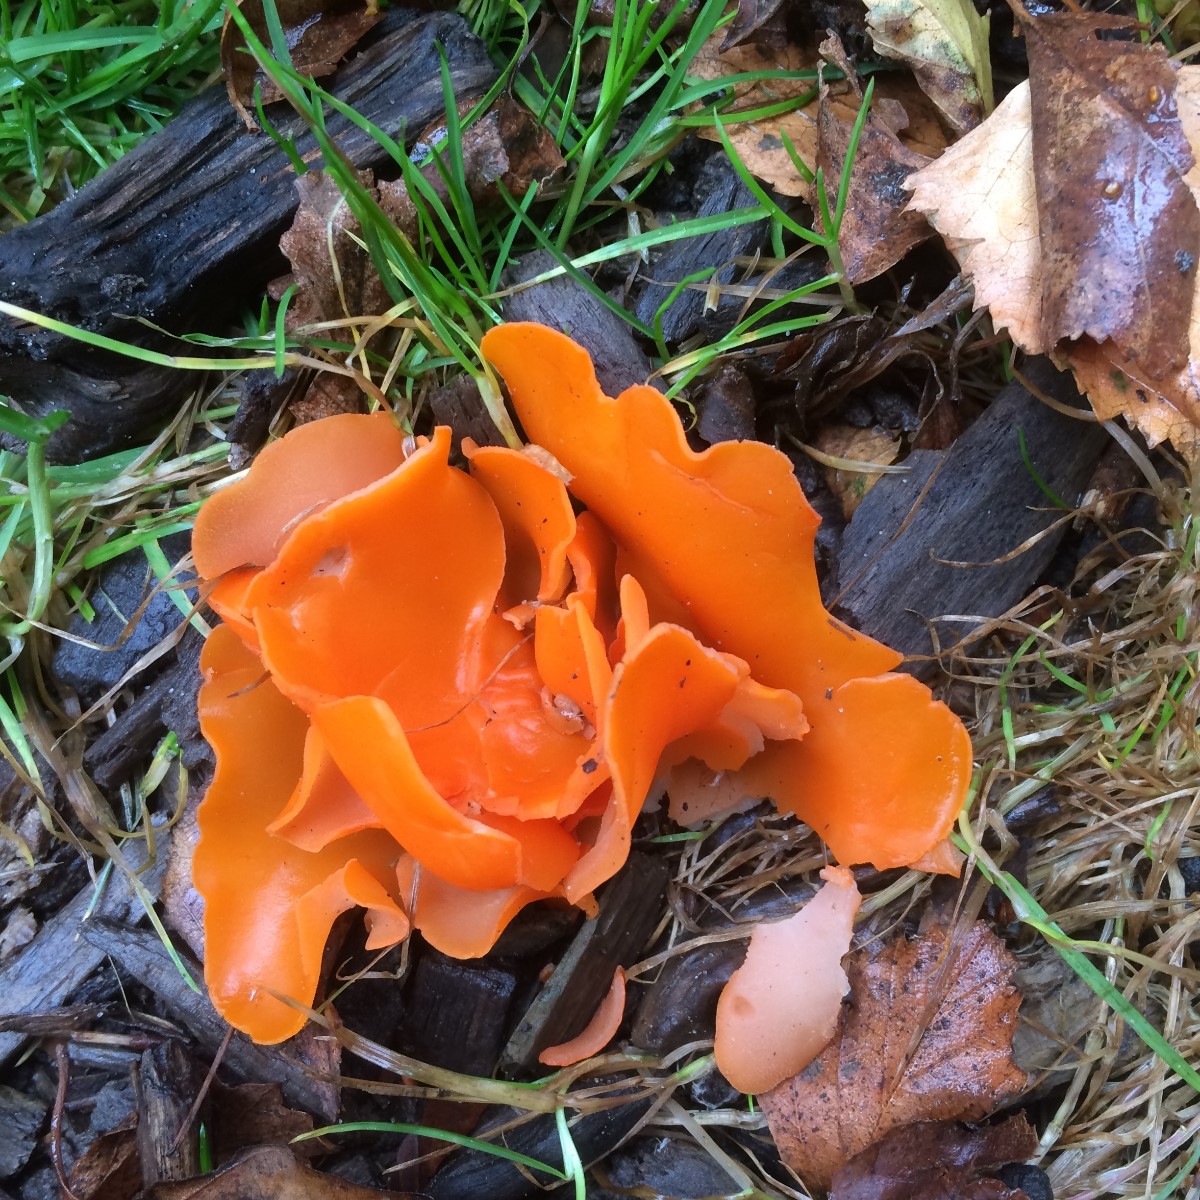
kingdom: Fungi
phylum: Ascomycota
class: Pezizomycetes
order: Pezizales
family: Pyronemataceae
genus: Aleuria
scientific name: Aleuria aurantia
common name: almindelig orangebæger
